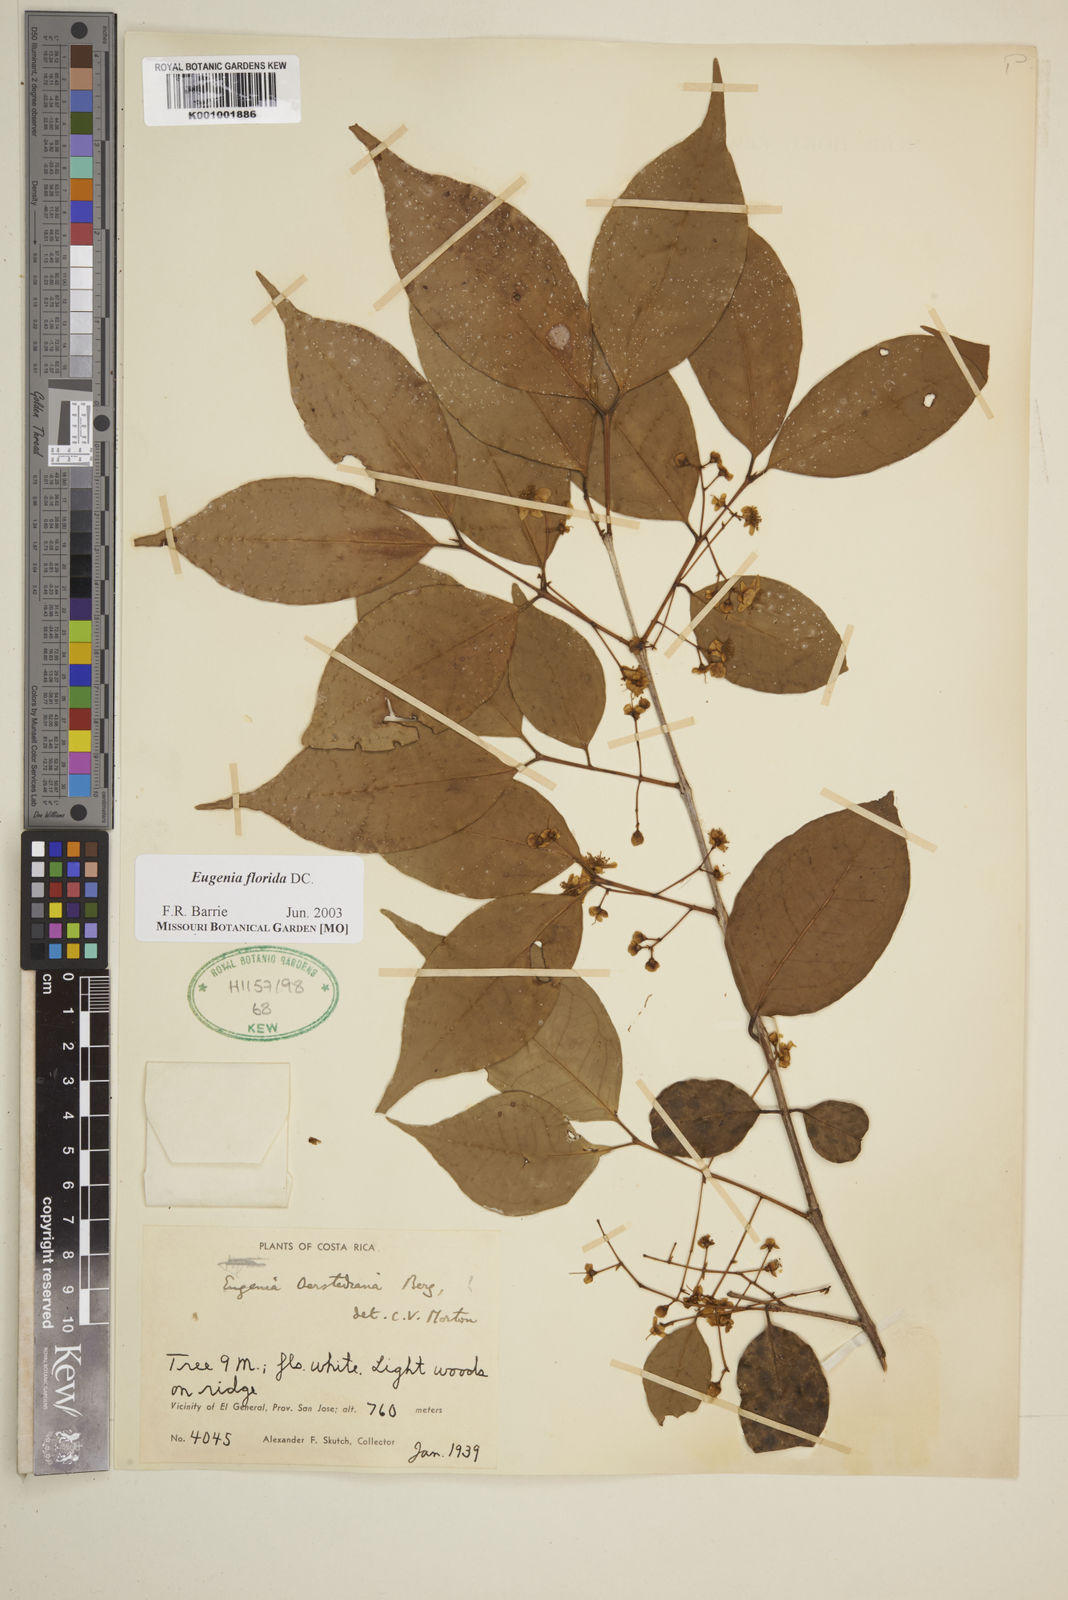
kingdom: Plantae
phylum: Tracheophyta
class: Magnoliopsida
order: Myrtales
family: Myrtaceae
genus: Eugenia
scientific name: Eugenia florida
